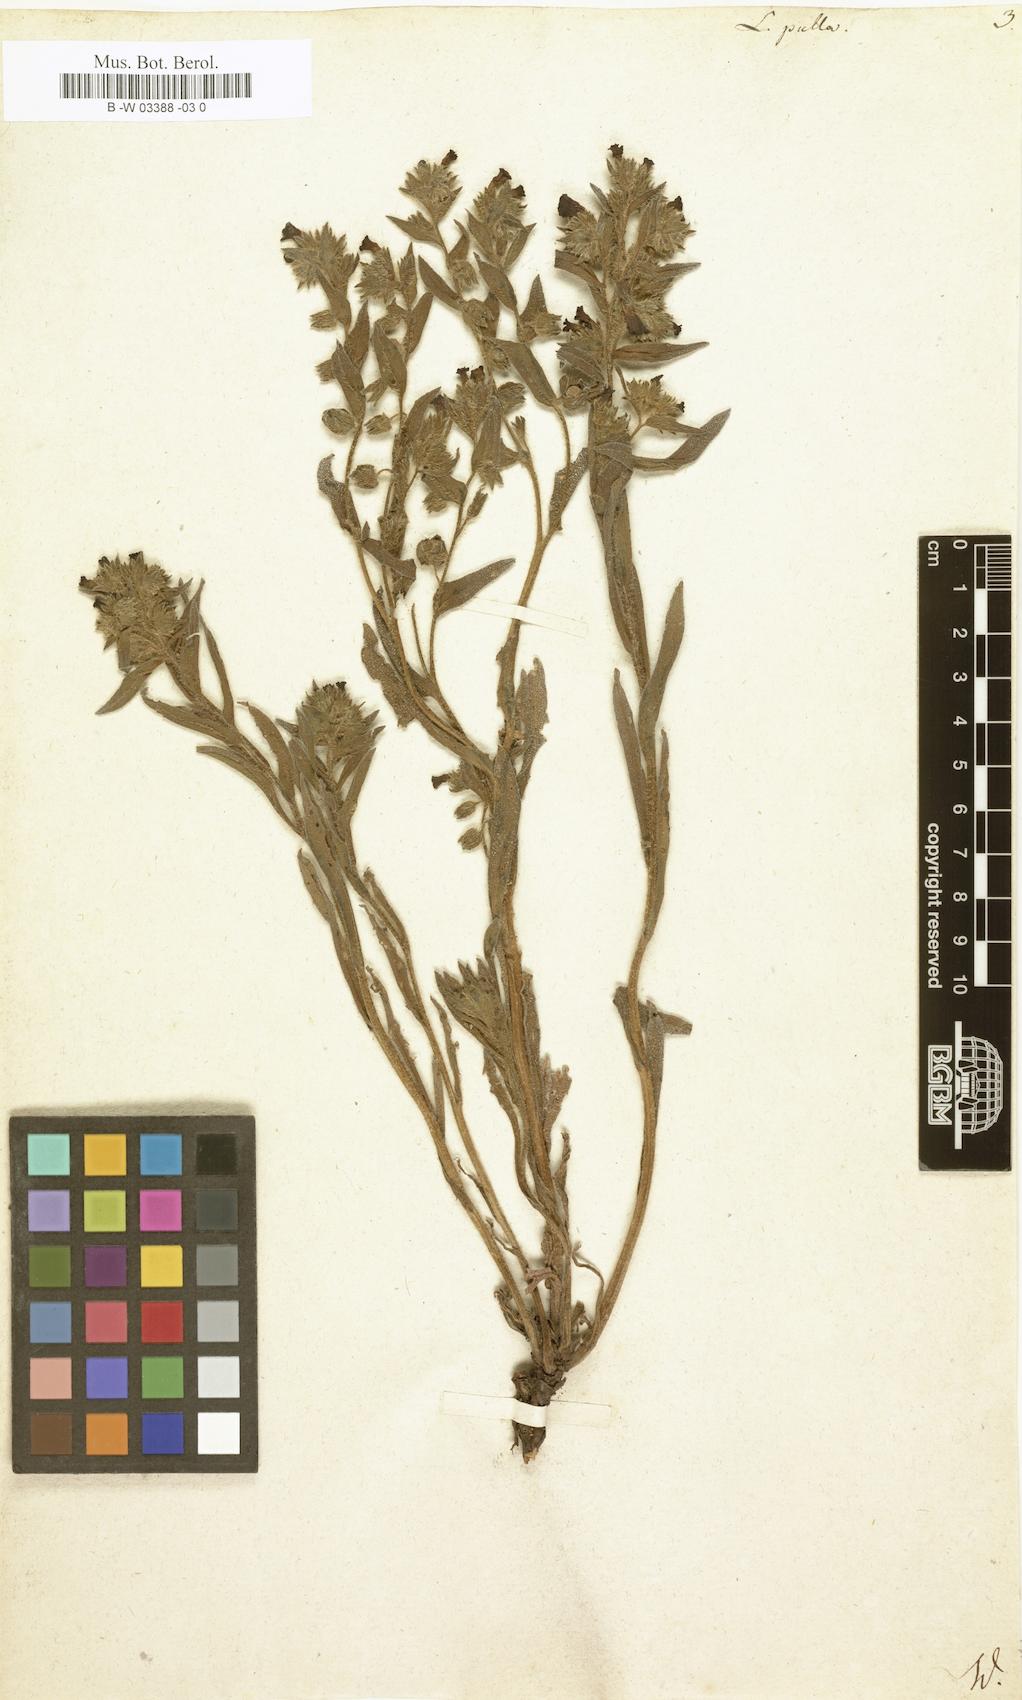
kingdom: Plantae
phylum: Tracheophyta
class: Magnoliopsida
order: Boraginales
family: Boraginaceae
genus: Nonea
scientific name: Nonea
